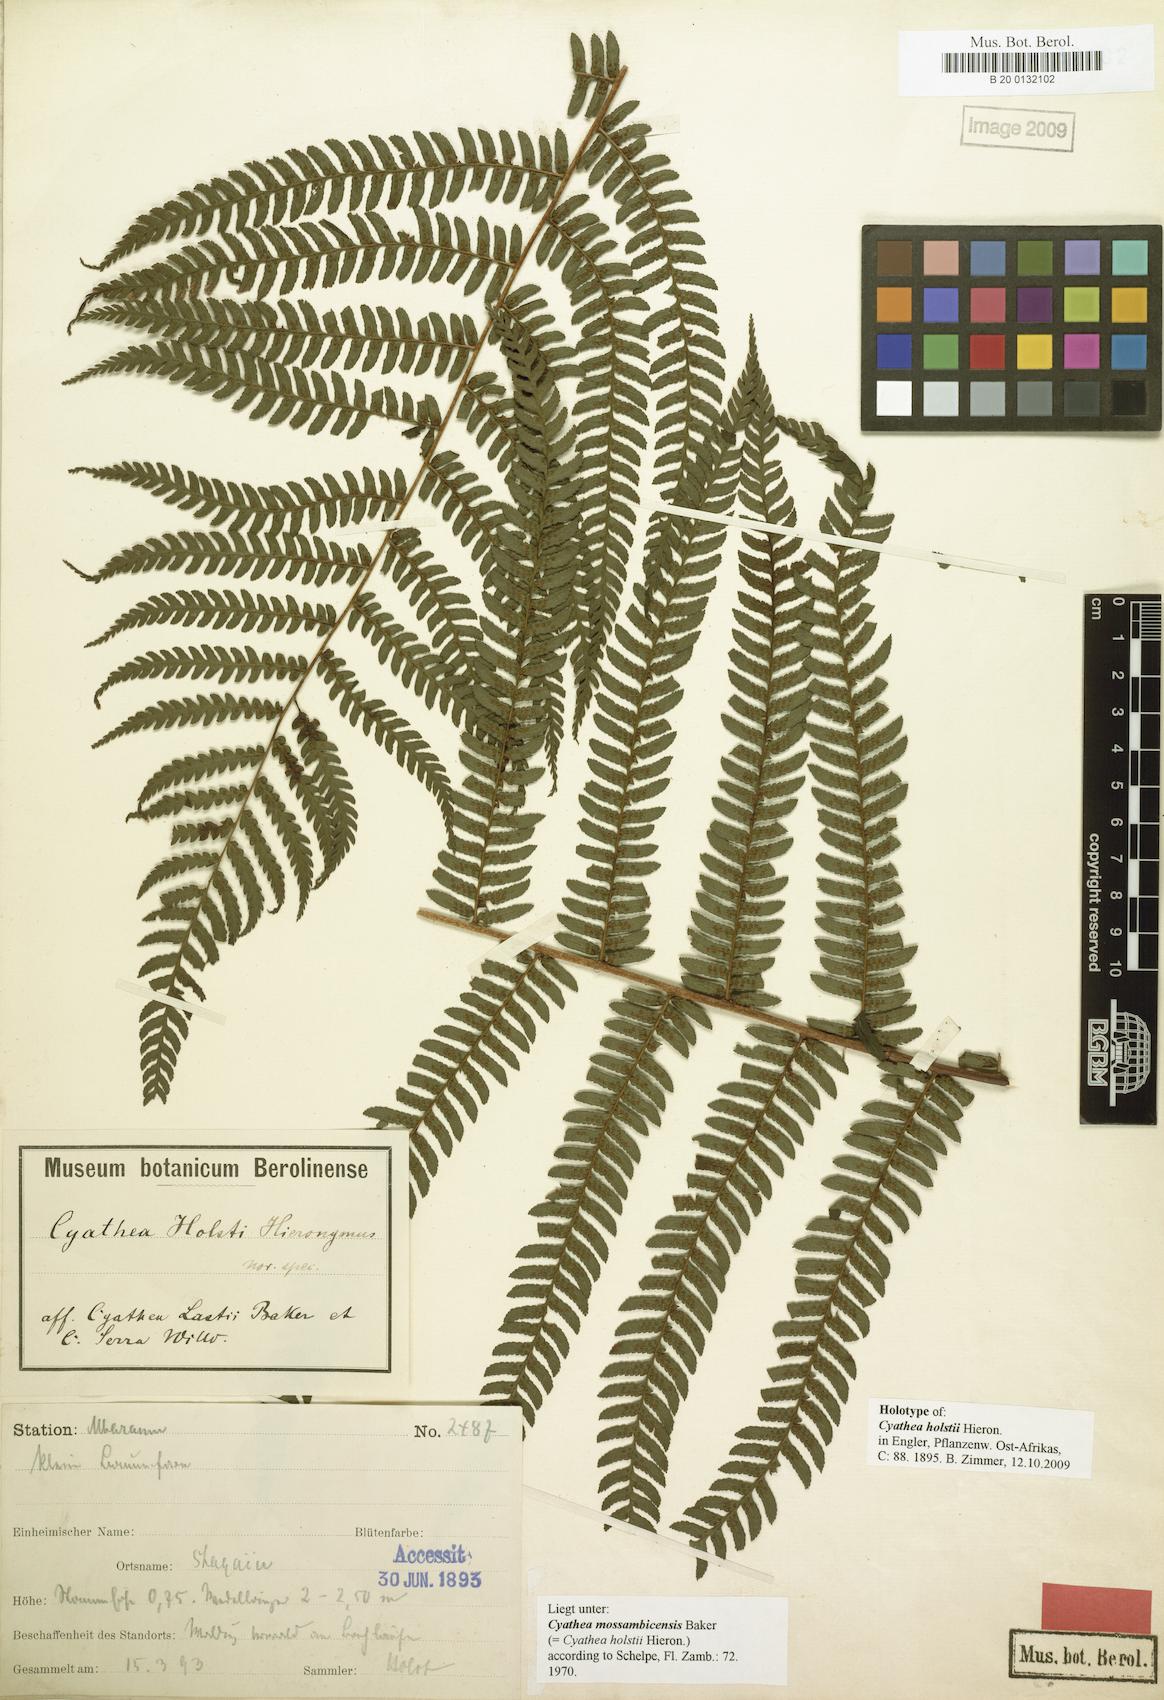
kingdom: Plantae
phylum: Tracheophyta
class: Polypodiopsida
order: Cyatheales
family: Cyatheaceae
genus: Alsophila
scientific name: Alsophila mossambicensis
